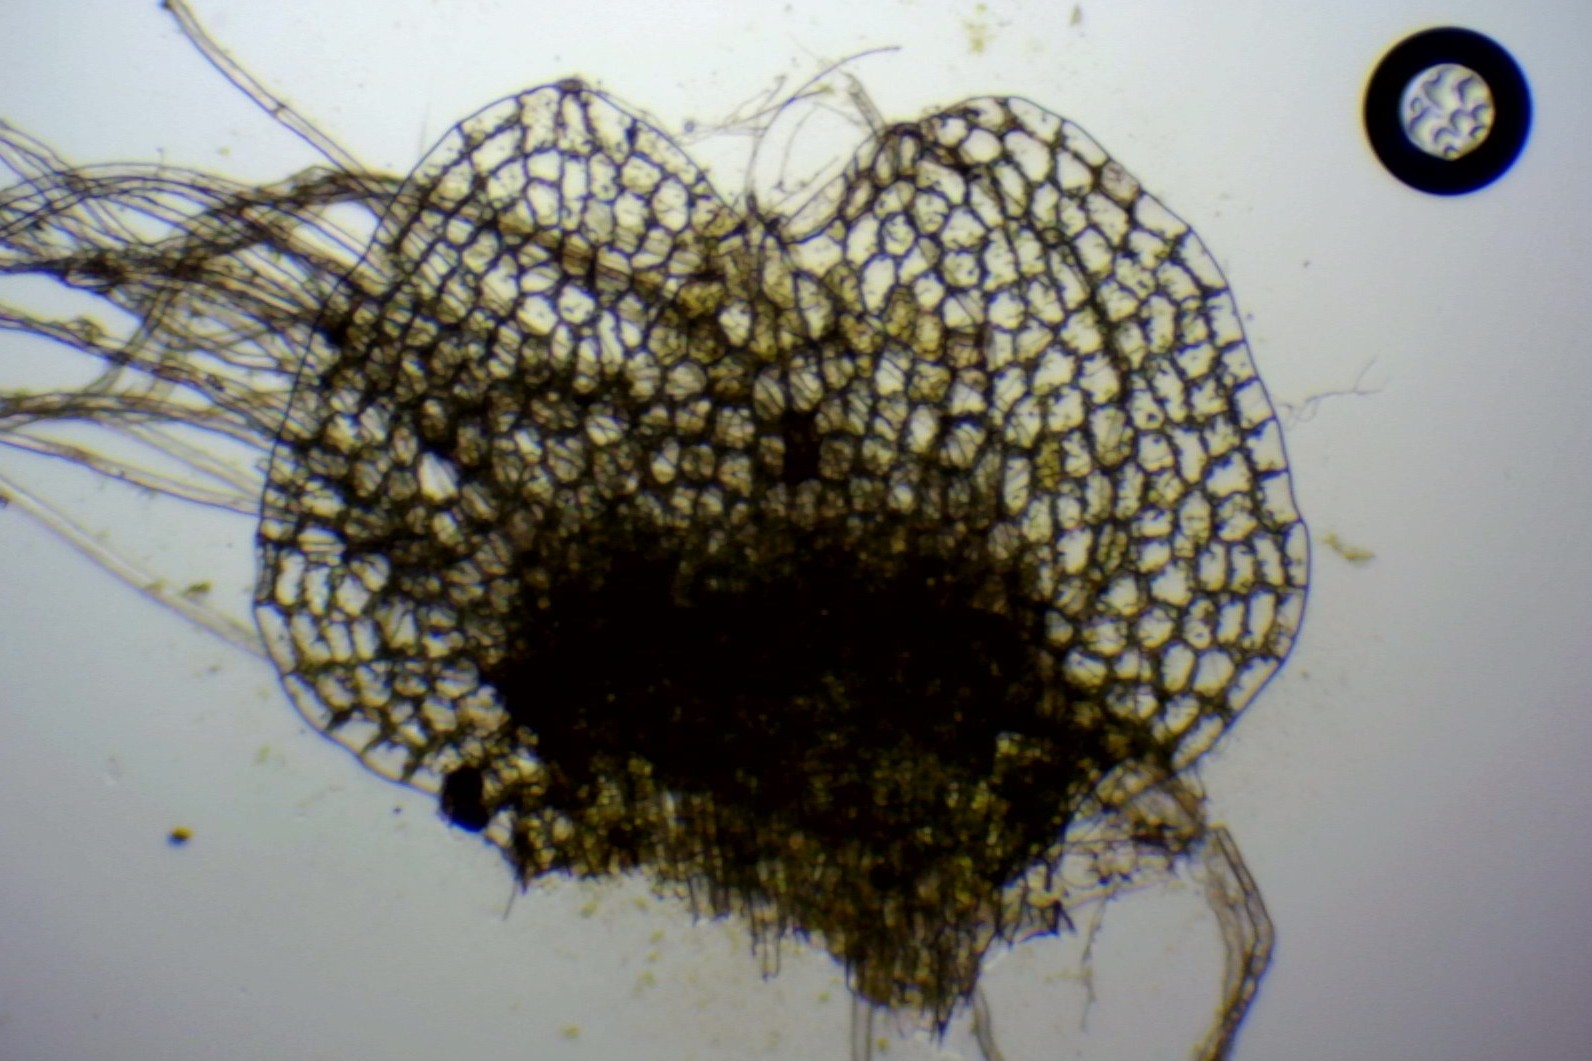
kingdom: Plantae
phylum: Marchantiophyta
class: Jungermanniopsida
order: Jungermanniales
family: Calypogeiaceae
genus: Calypogeia
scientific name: Calypogeia muelleriana
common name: Almindelig sækmos
